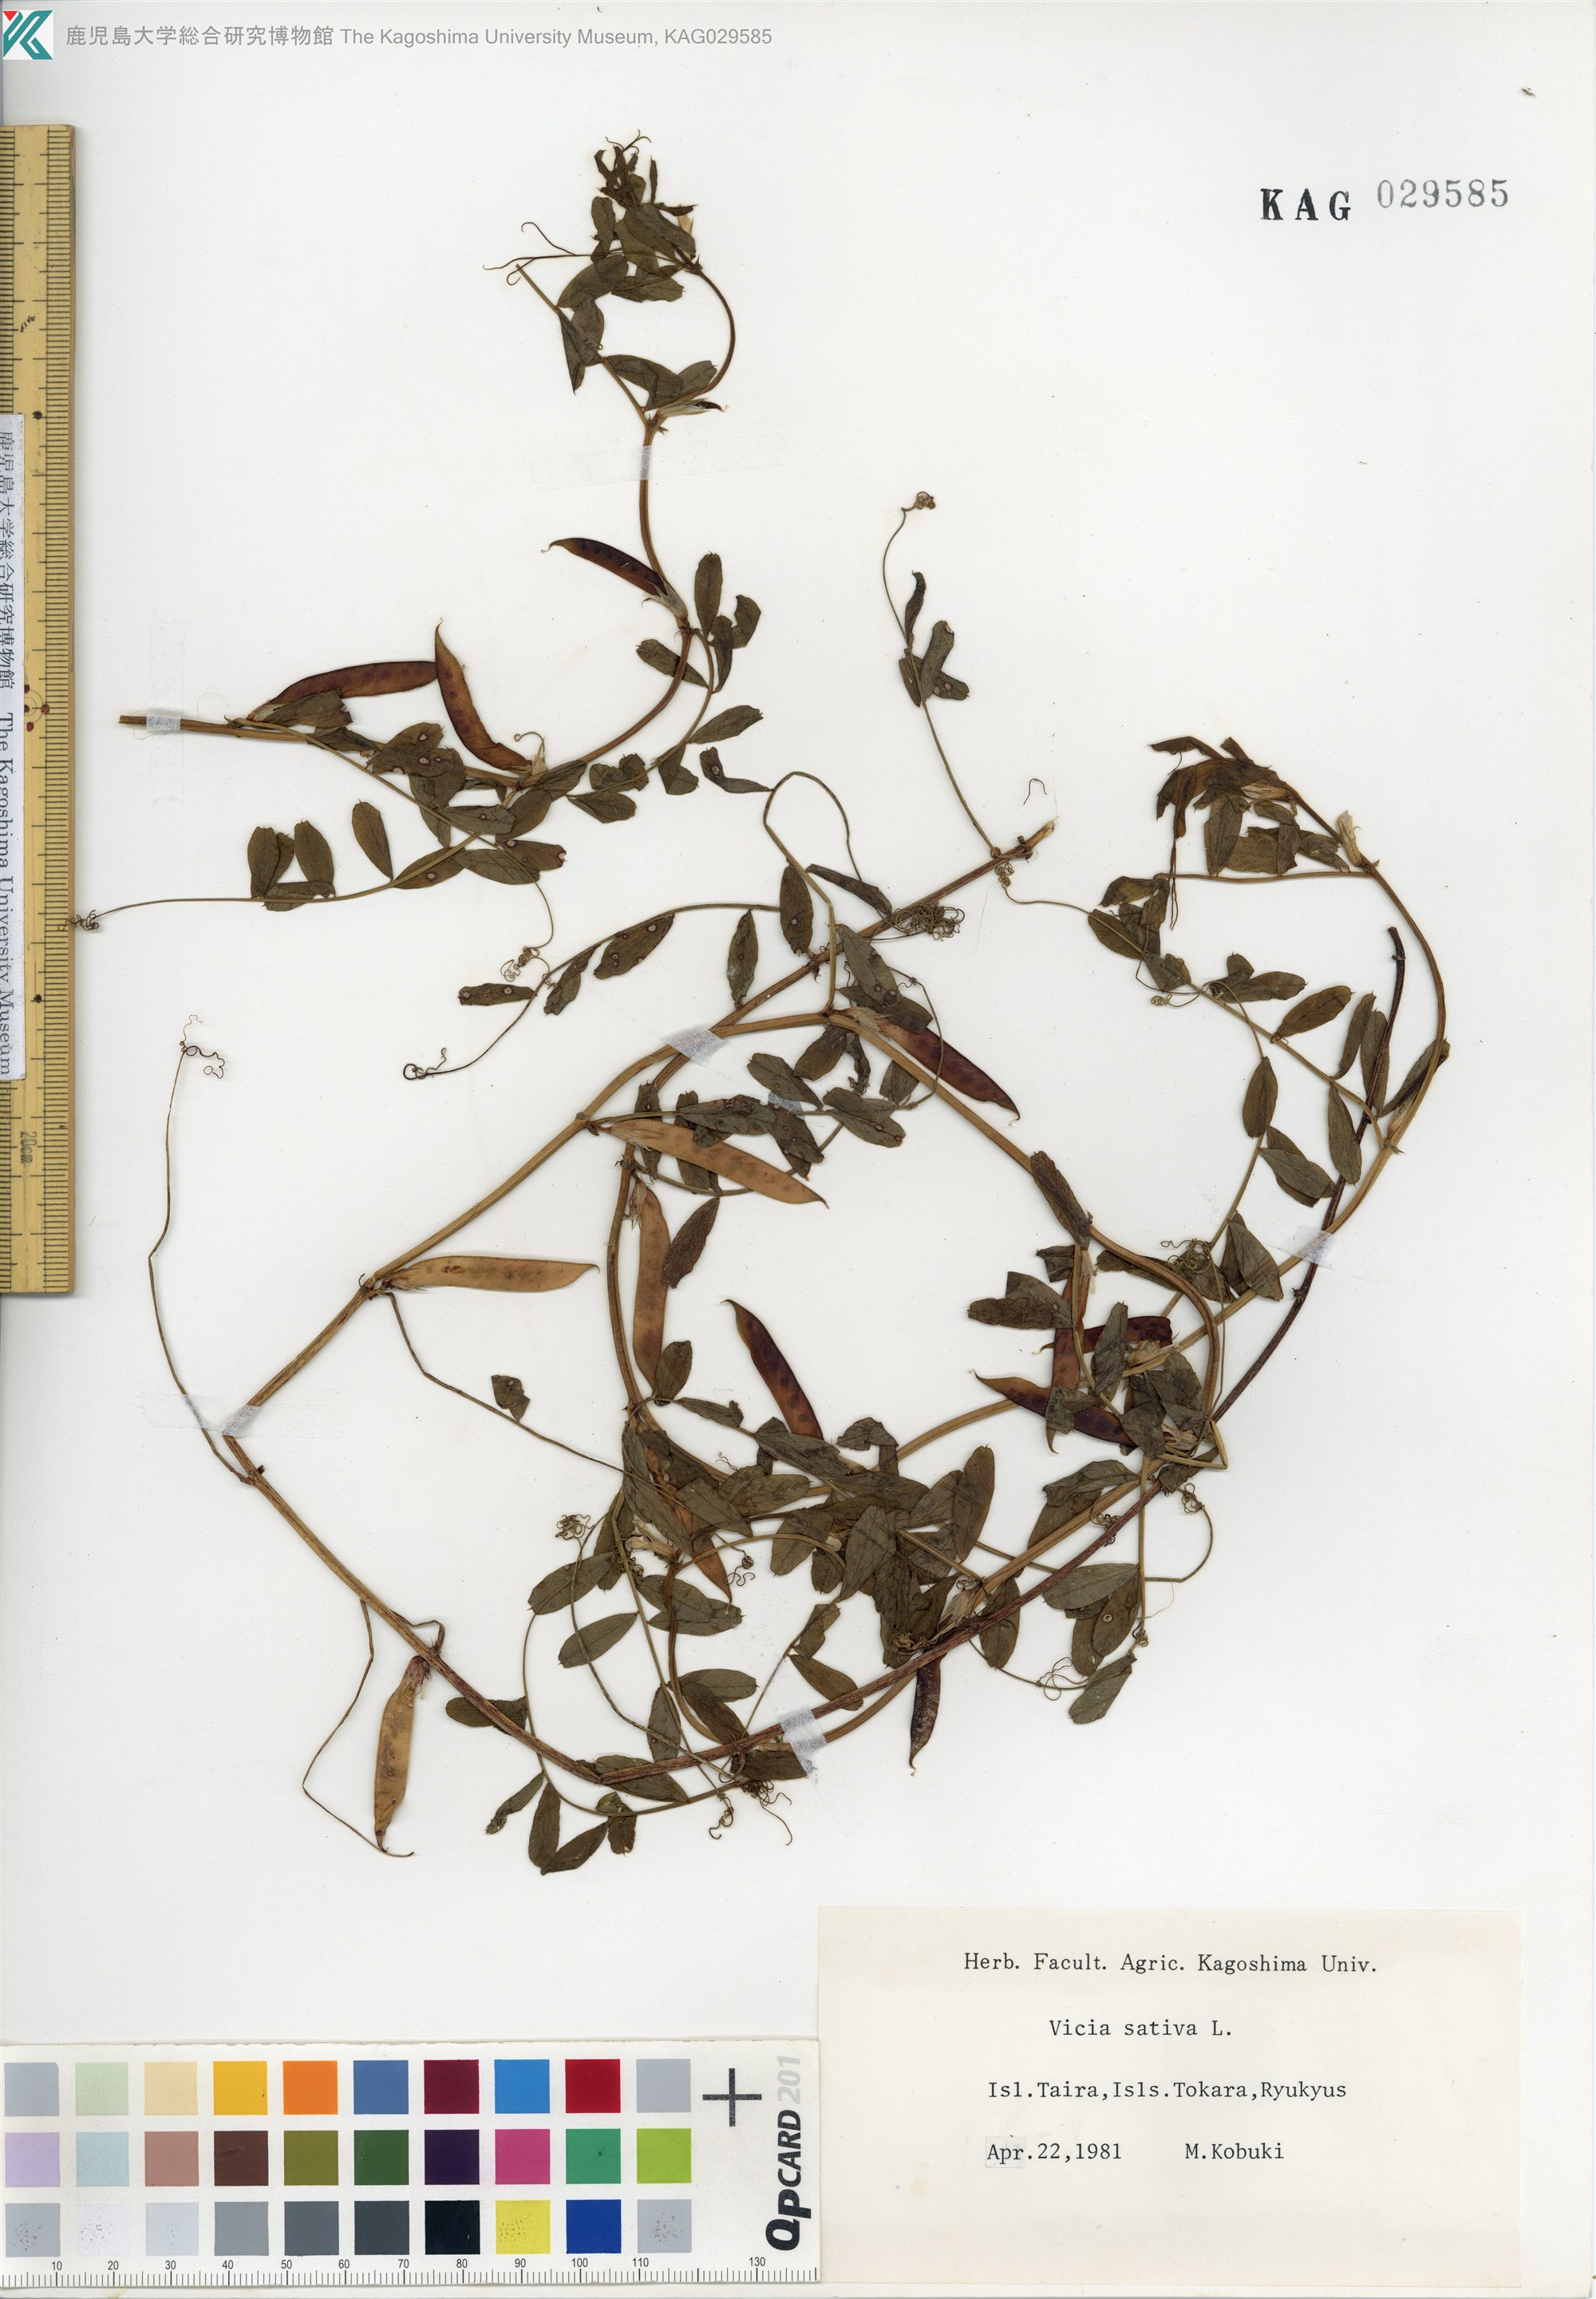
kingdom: Plantae
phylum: Tracheophyta
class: Magnoliopsida
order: Fabales
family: Fabaceae
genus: Vicia
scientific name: Vicia sativa
